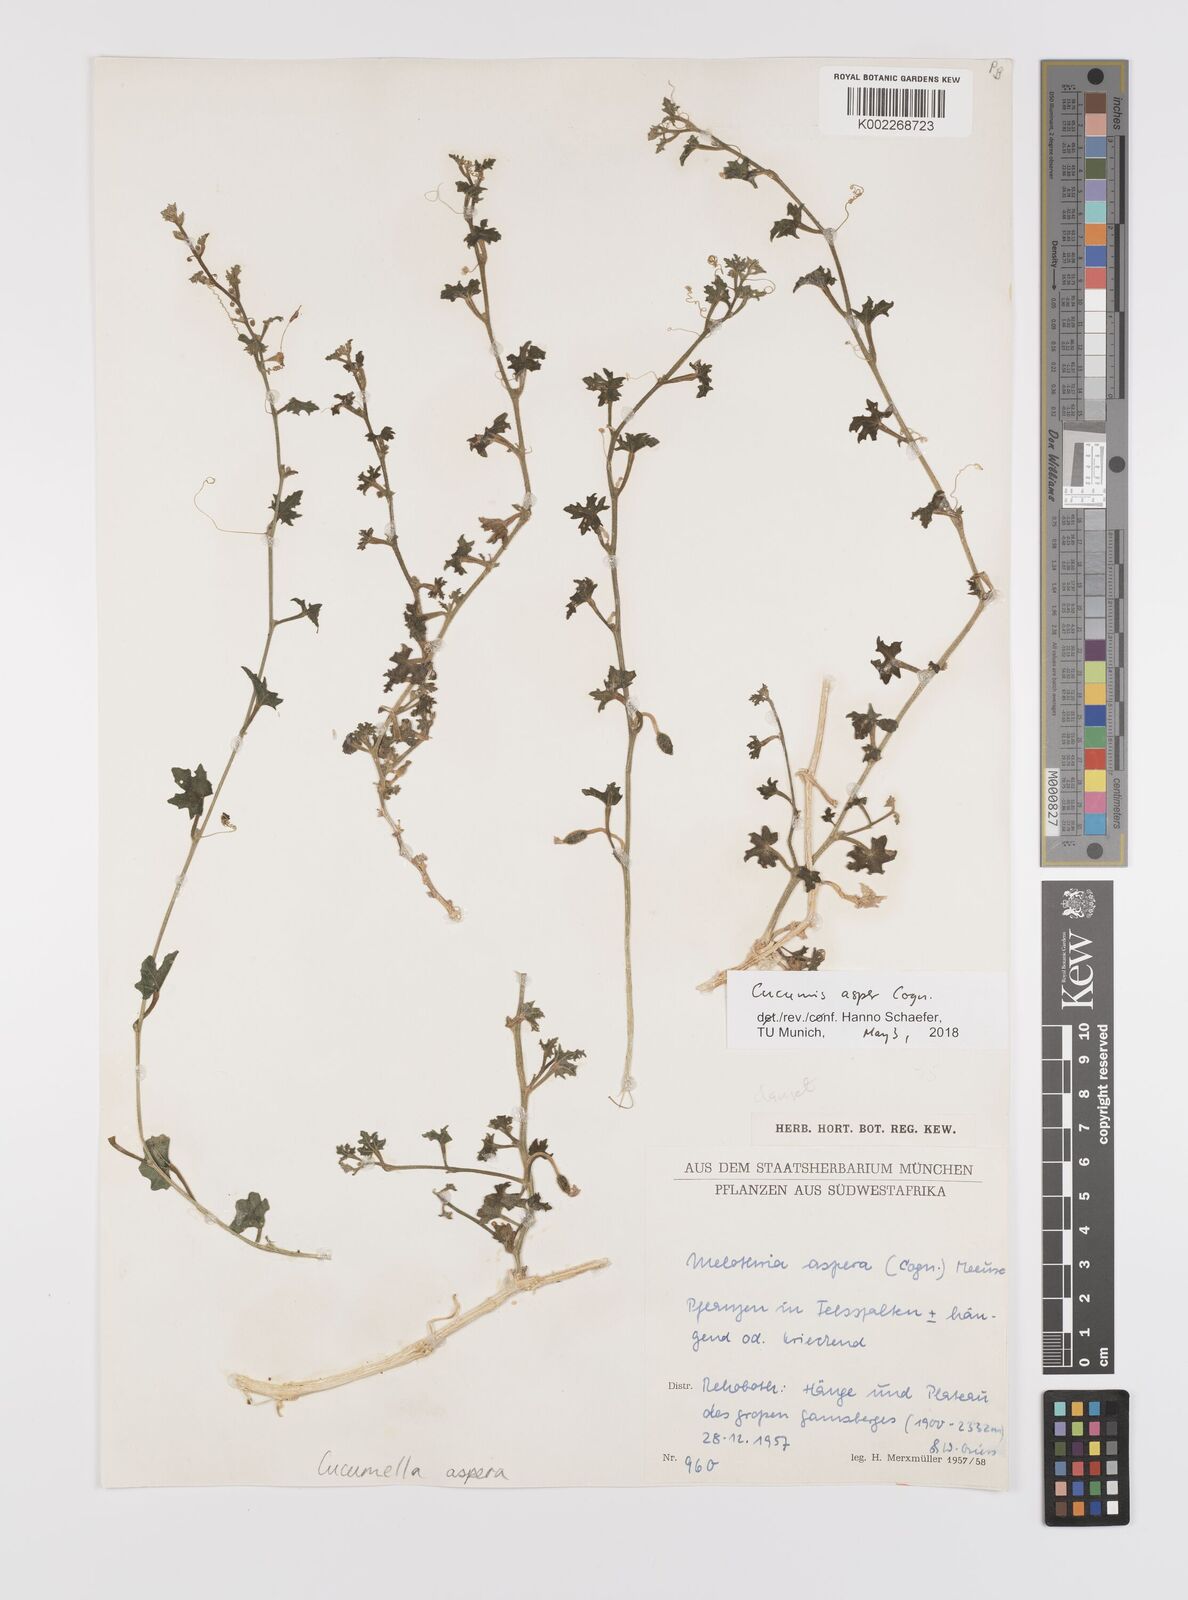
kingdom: Plantae
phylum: Tracheophyta
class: Magnoliopsida
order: Cucurbitales
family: Cucurbitaceae
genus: Cucumis
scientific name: Cucumis asper
